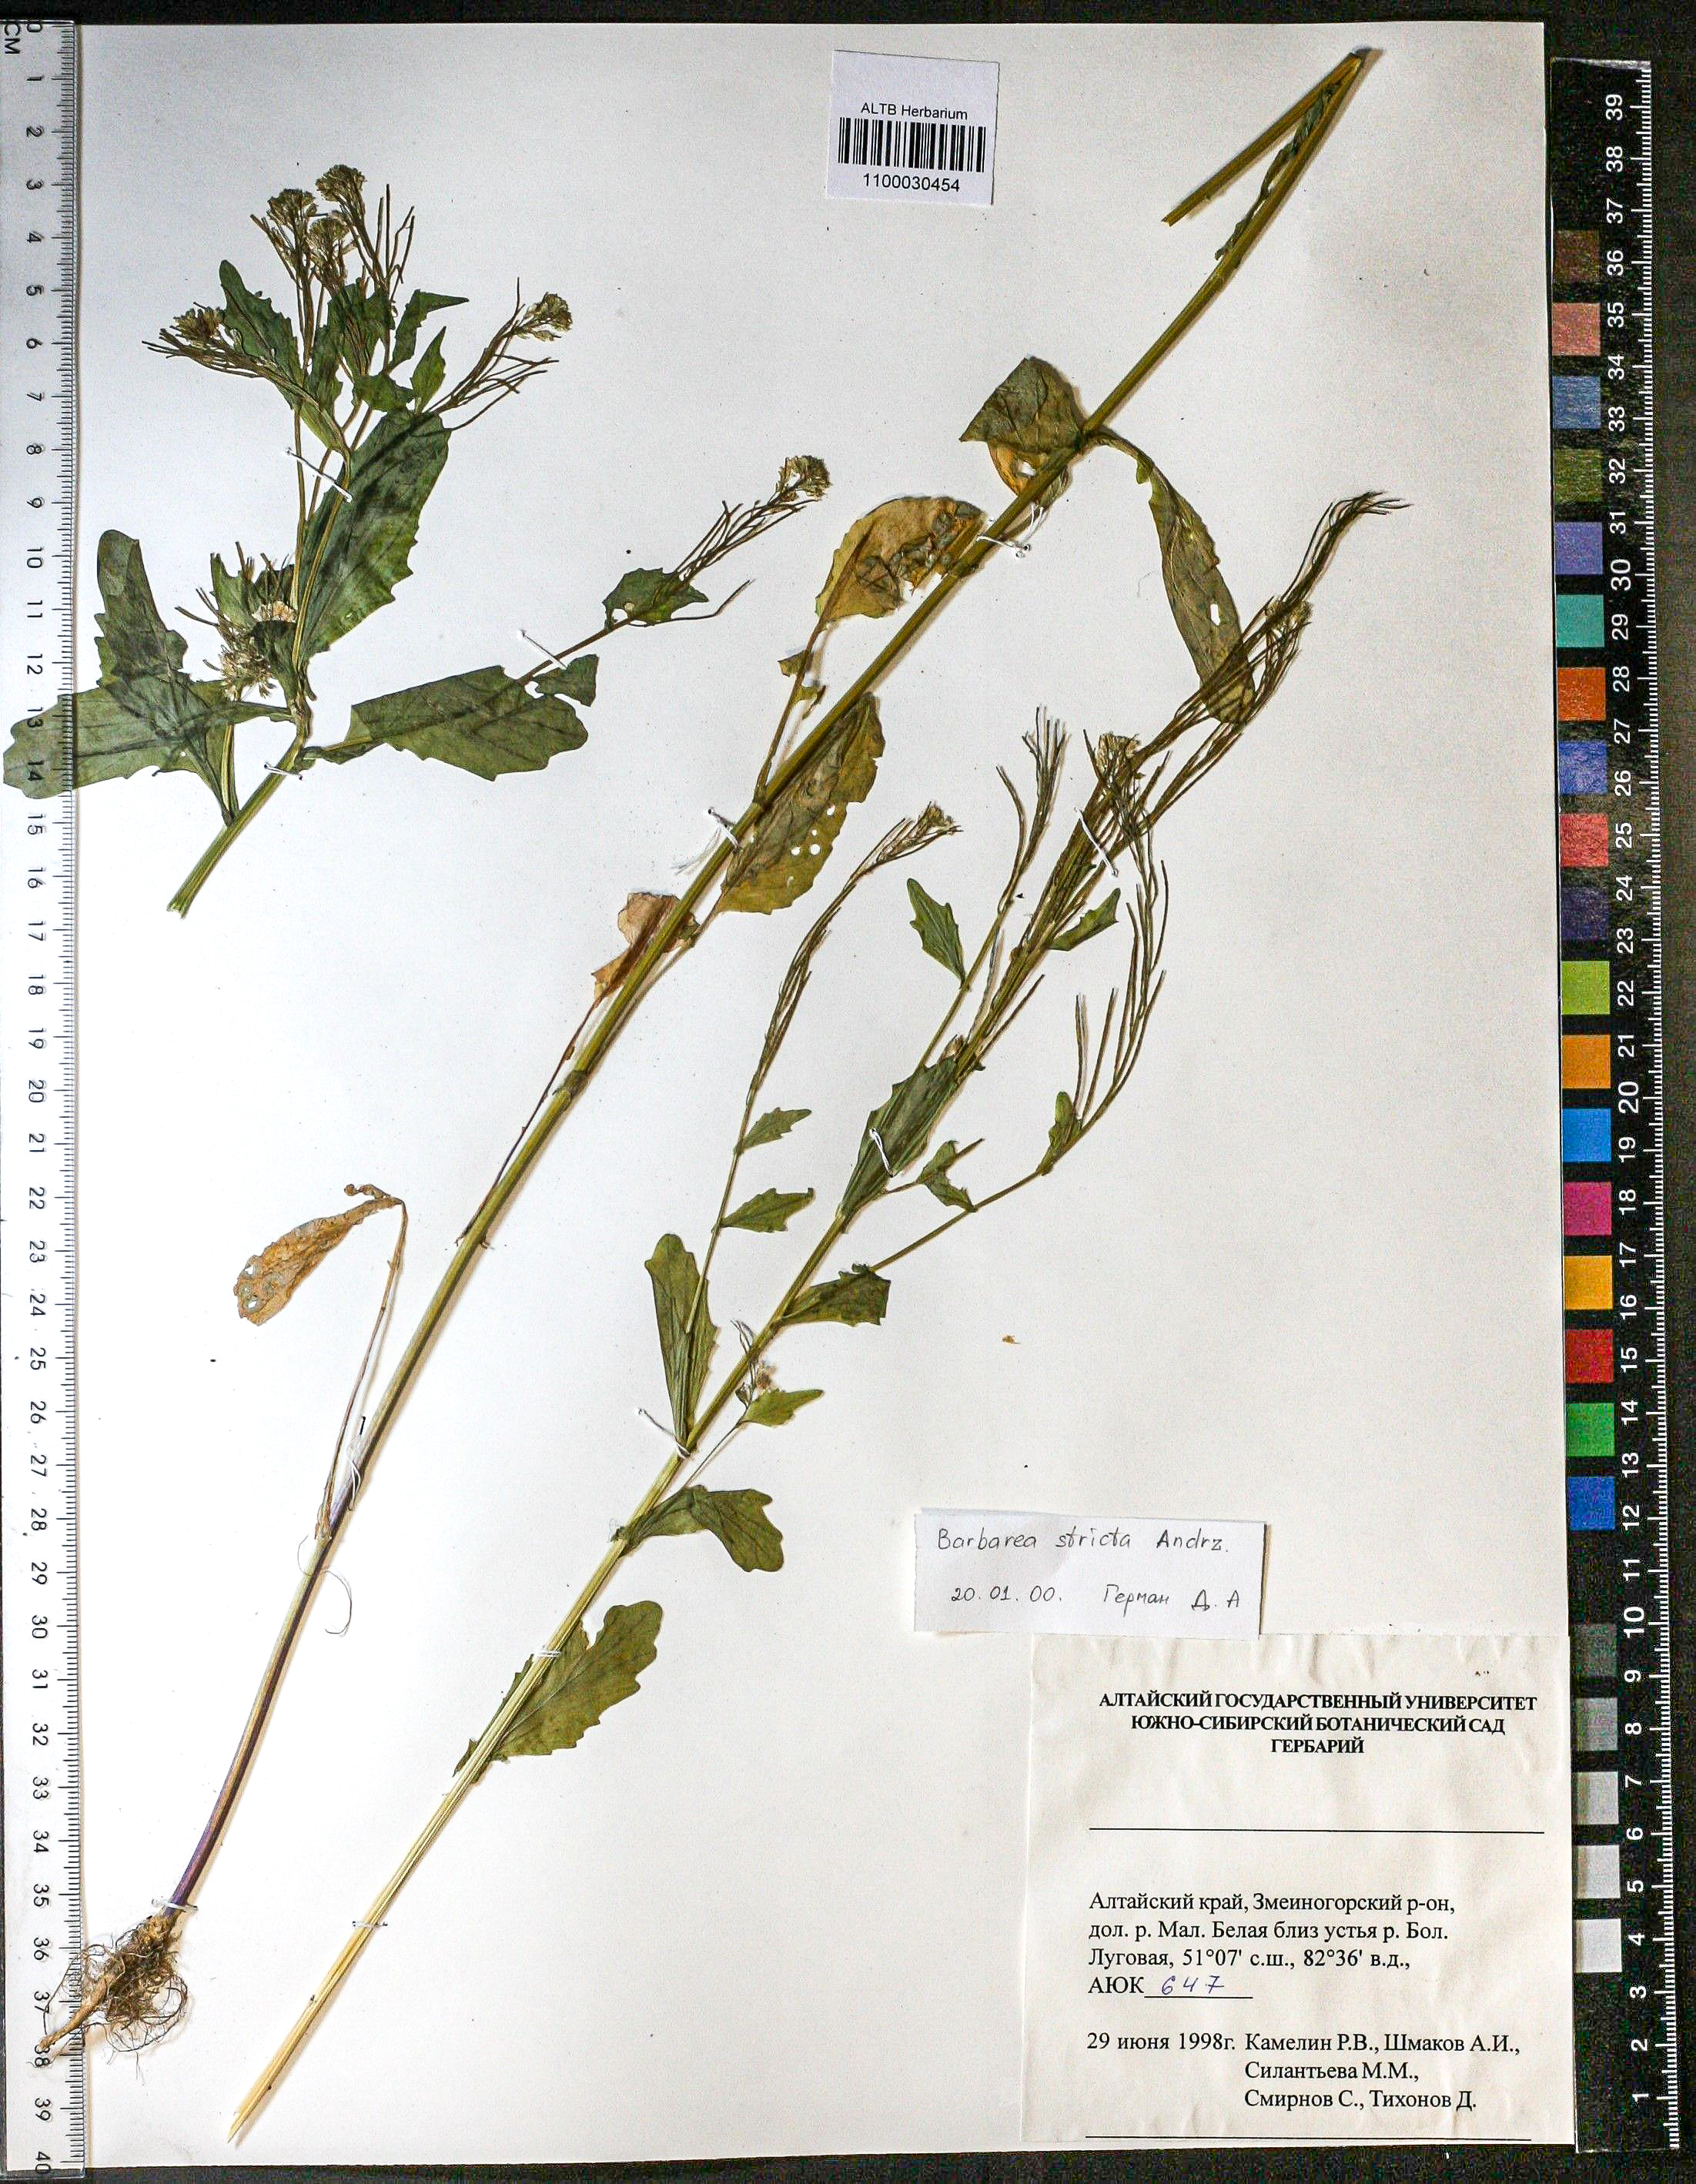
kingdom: Plantae
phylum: Tracheophyta
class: Magnoliopsida
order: Brassicales
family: Brassicaceae
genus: Barbarea
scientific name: Barbarea vulgaris
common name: Cressy-greens
